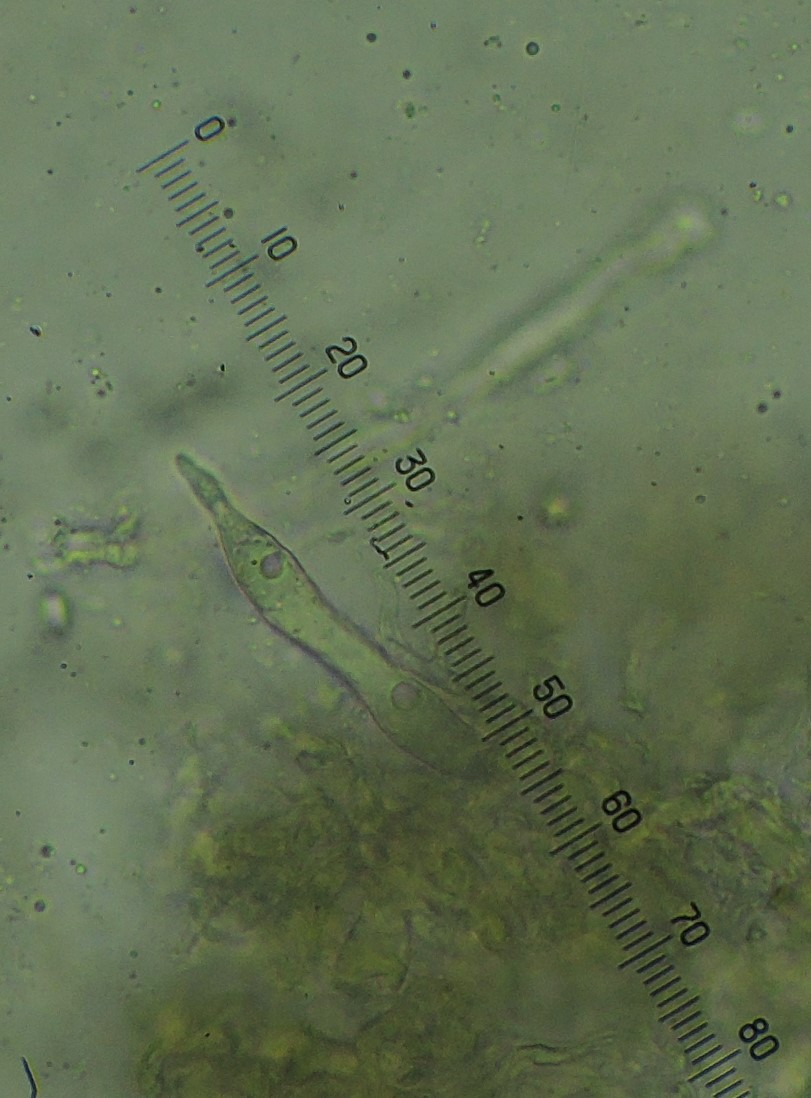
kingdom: Fungi
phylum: Basidiomycota
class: Agaricomycetes
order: Hymenochaetales
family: Rickenellaceae
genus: Peniophorella
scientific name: Peniophorella praetermissa
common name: almindelig kalkskind
